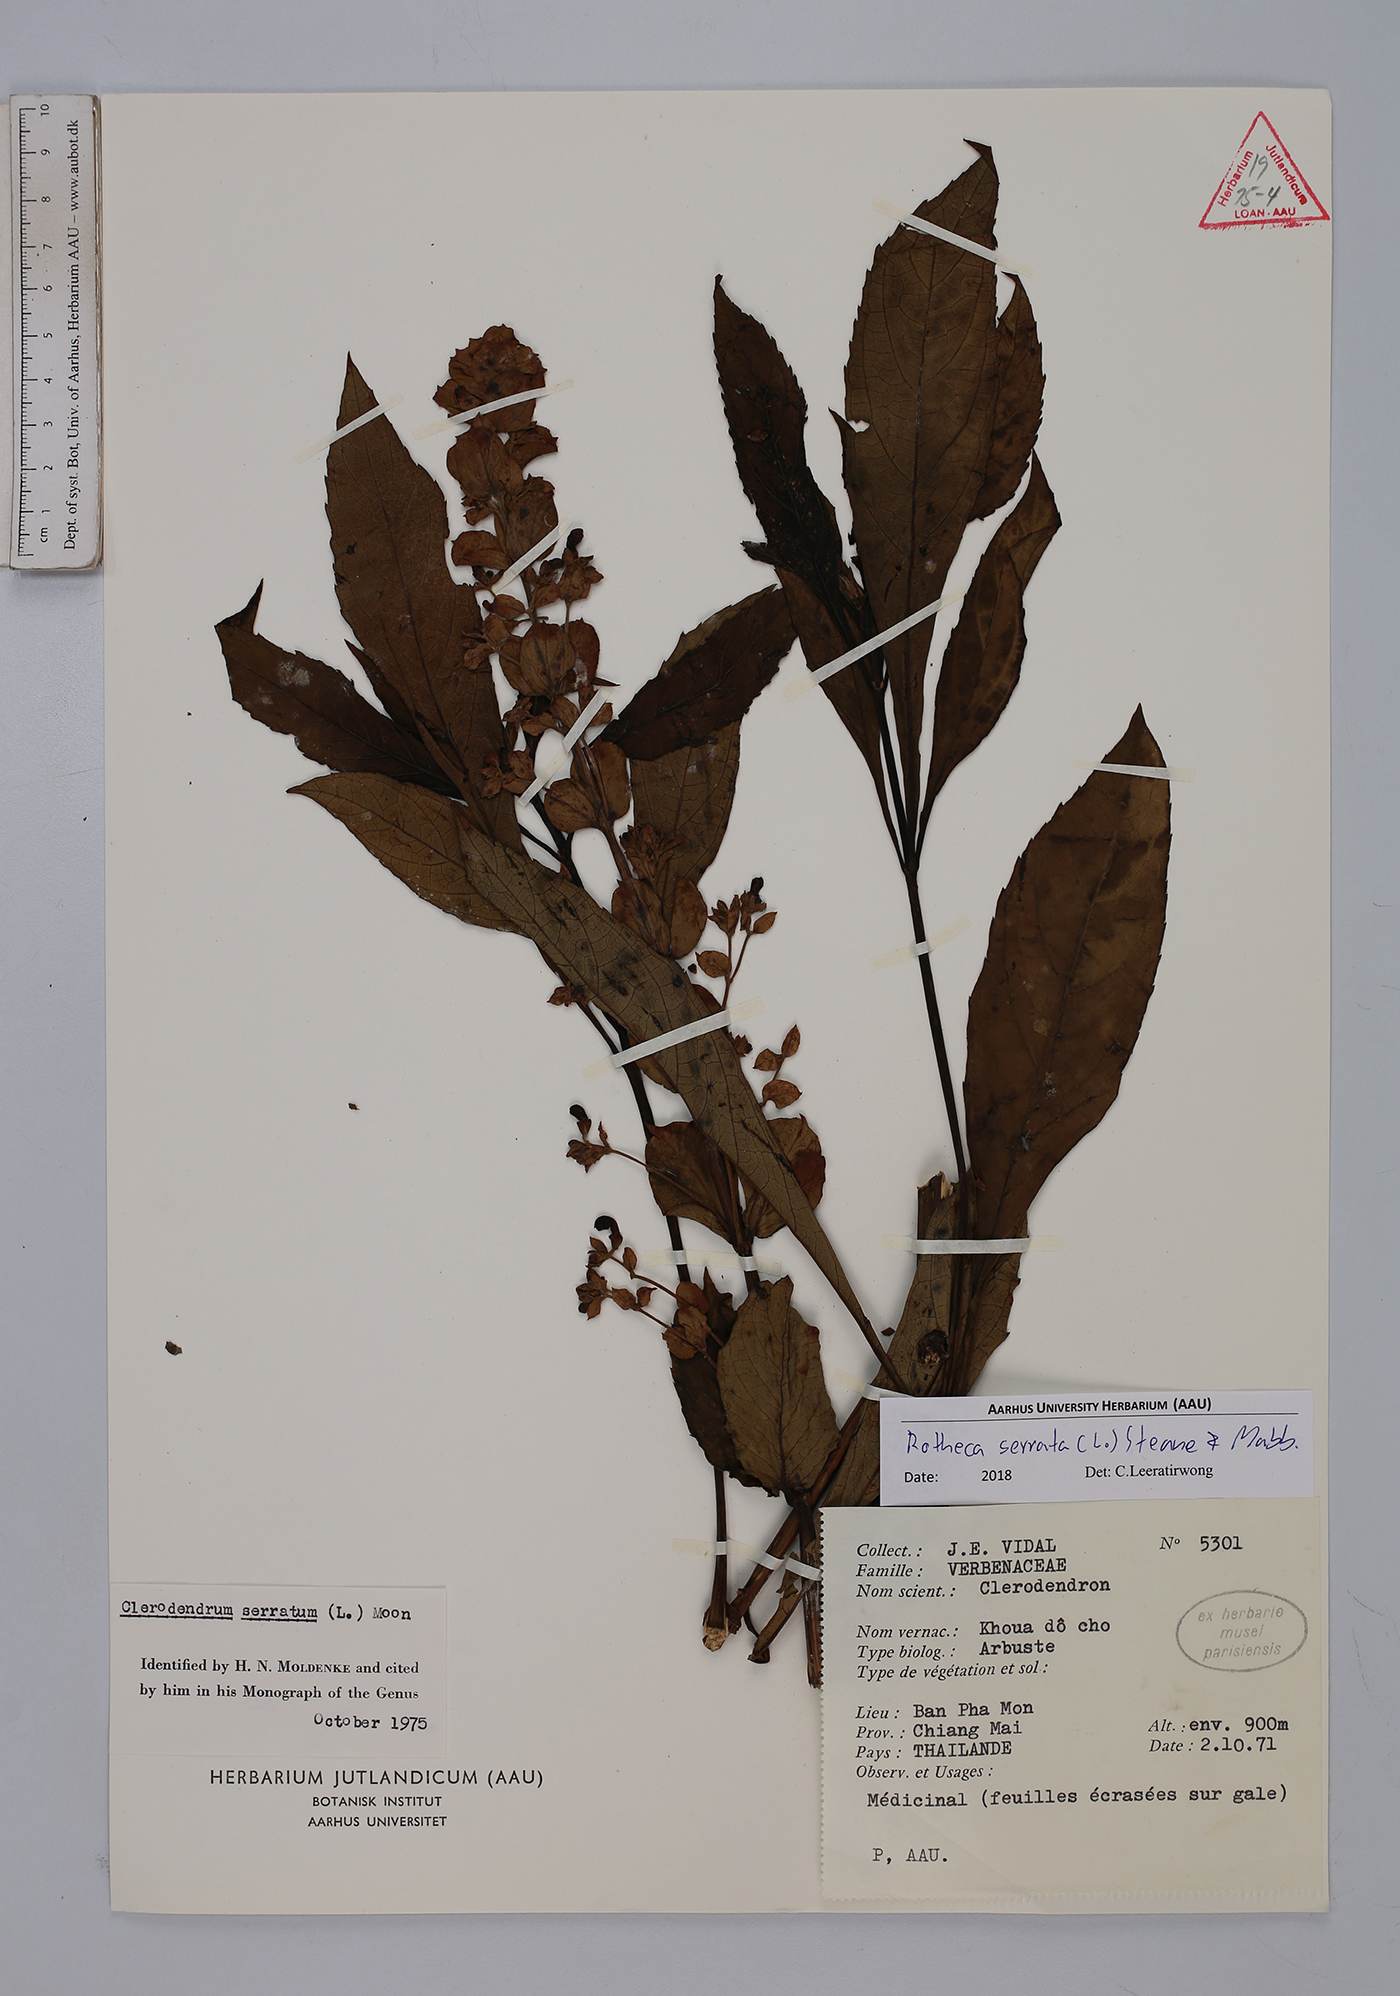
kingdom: Plantae
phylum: Tracheophyta
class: Magnoliopsida
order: Lamiales
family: Lamiaceae
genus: Rotheca
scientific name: Rotheca serrata
